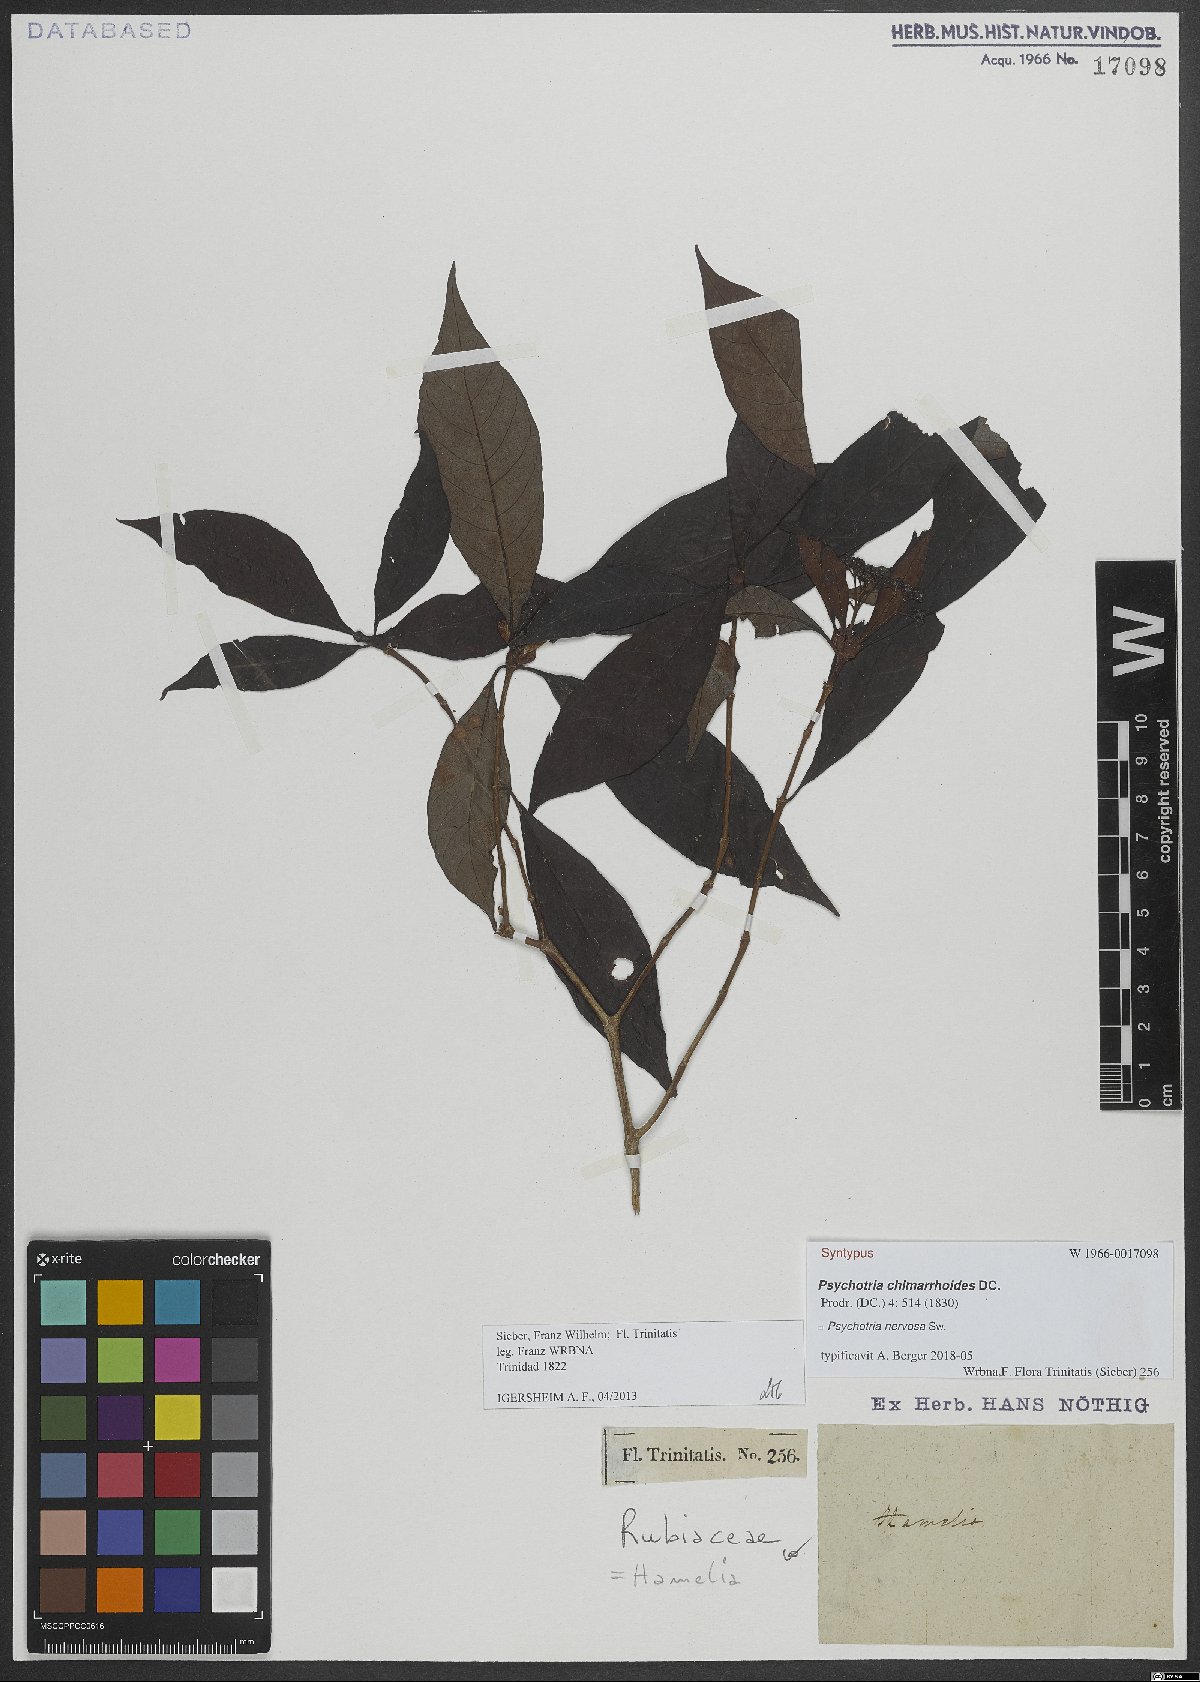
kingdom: Plantae
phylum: Tracheophyta
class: Magnoliopsida
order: Gentianales
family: Rubiaceae
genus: Psychotria
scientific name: Psychotria nervosa
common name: Bastard cankerberry
